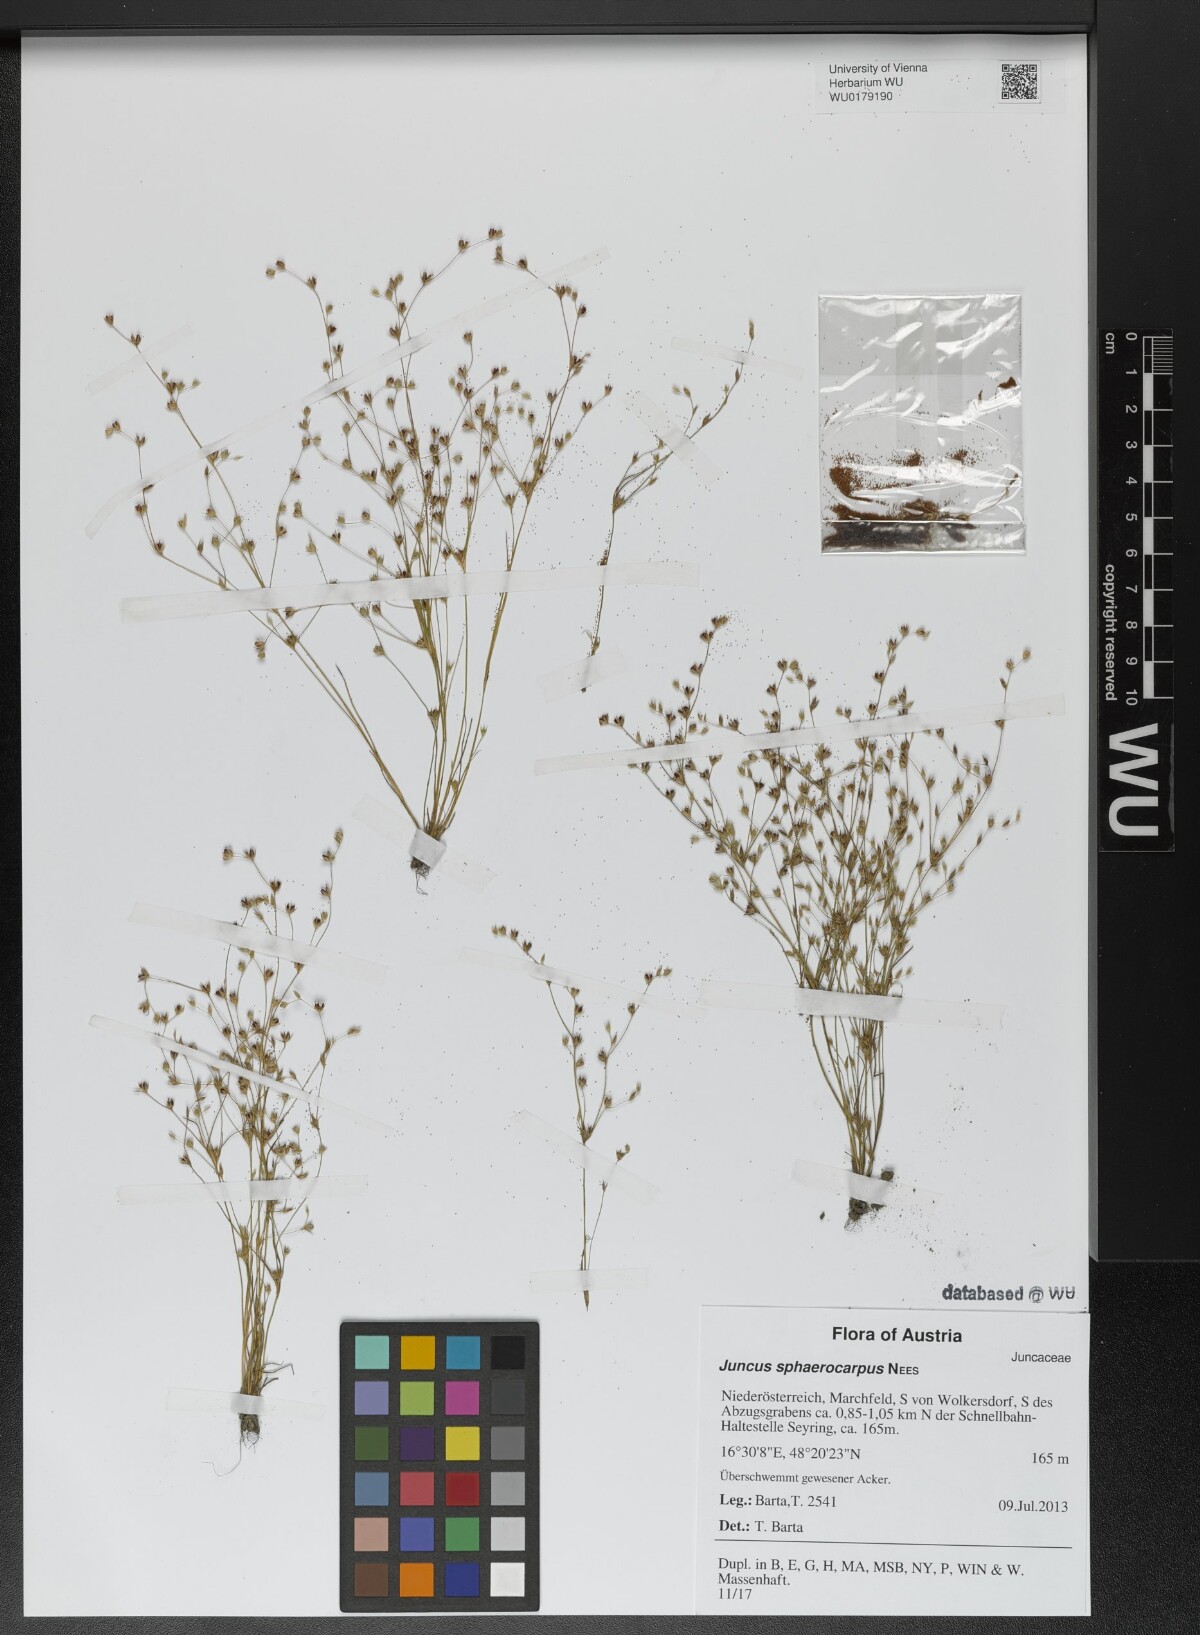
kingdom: Plantae
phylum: Tracheophyta
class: Liliopsida
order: Poales
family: Juncaceae
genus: Juncus
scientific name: Juncus sphaerocarpus
